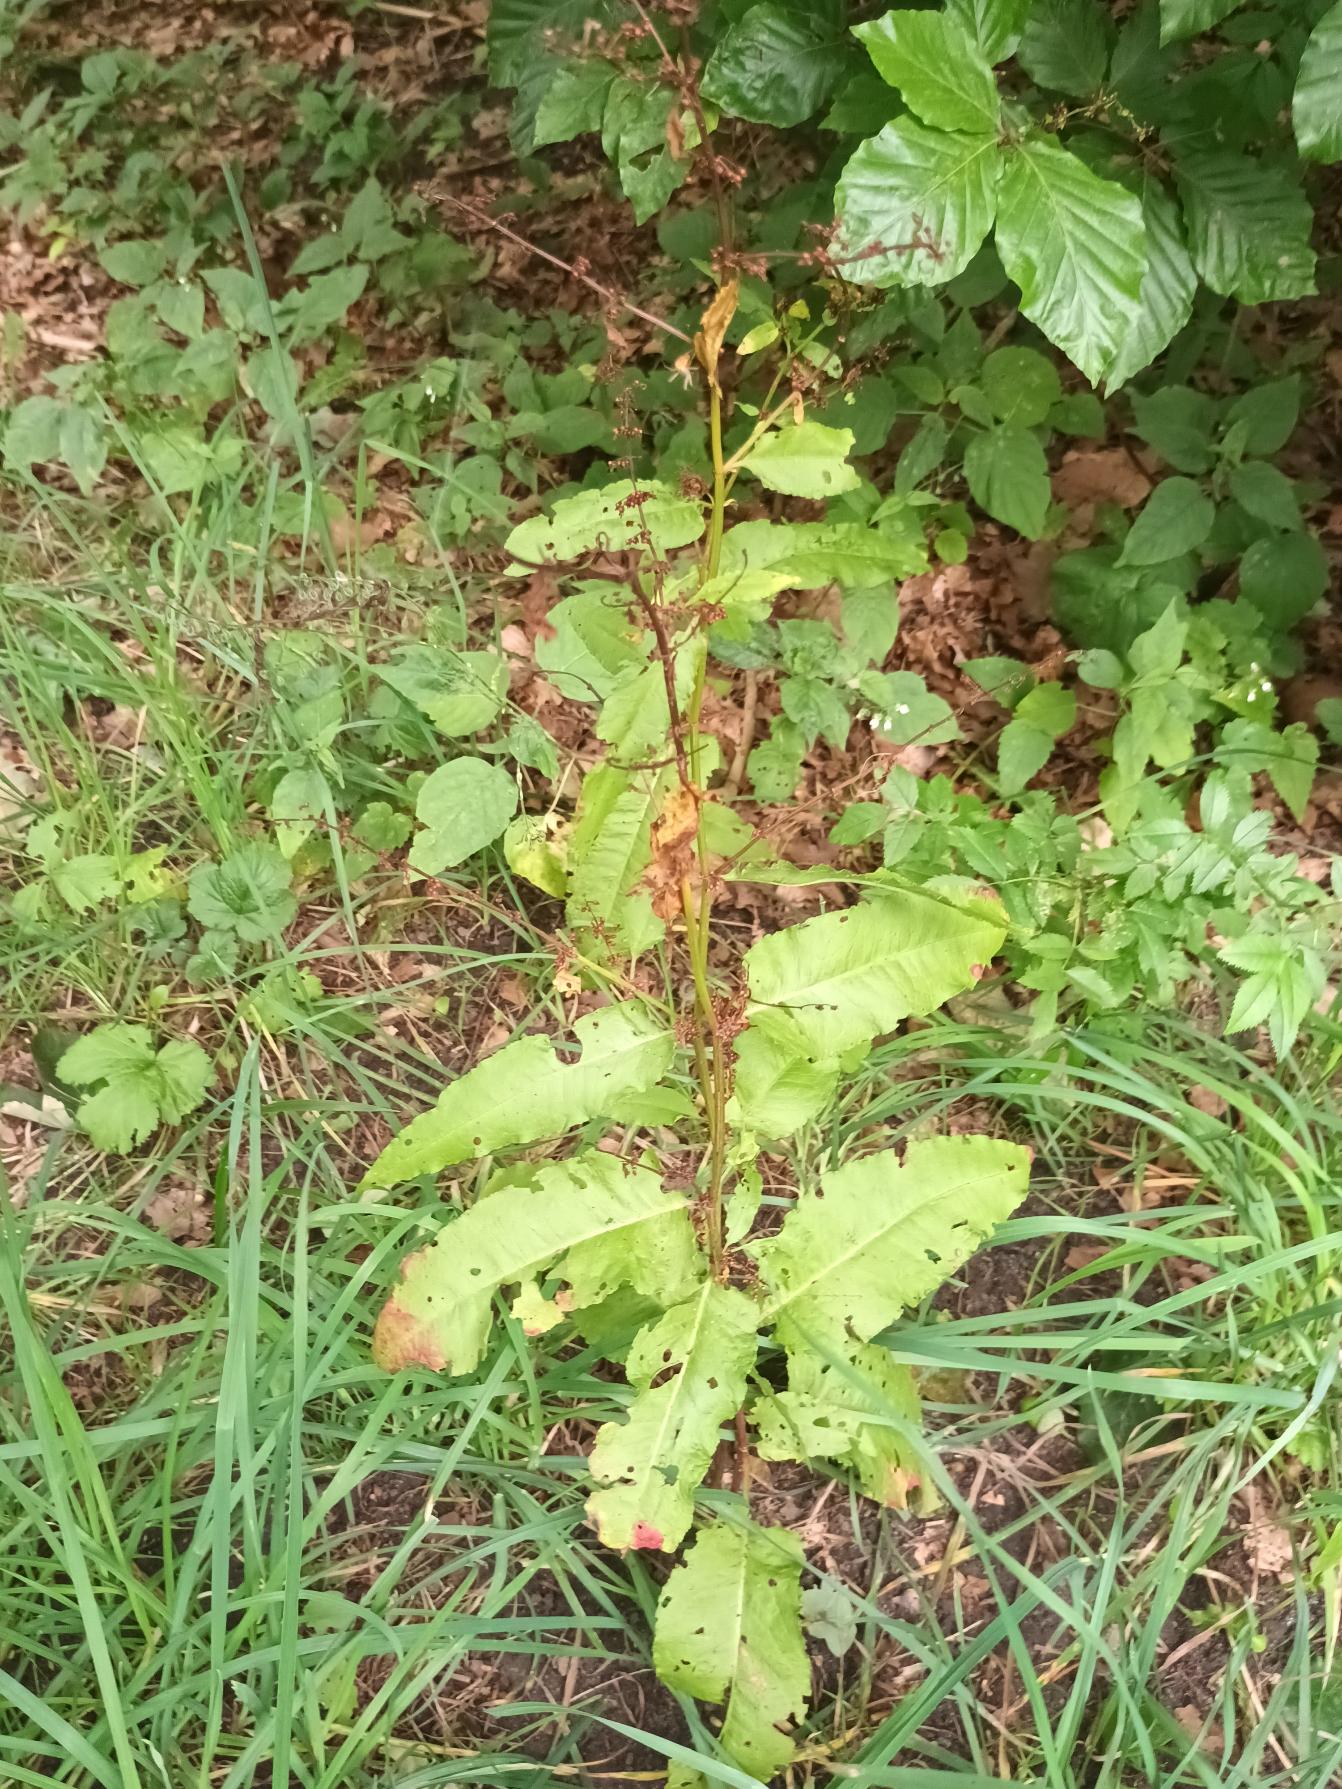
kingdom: Plantae
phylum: Tracheophyta
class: Magnoliopsida
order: Caryophyllales
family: Polygonaceae
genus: Rumex
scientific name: Rumex sanguineus
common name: Skov-skræppe
